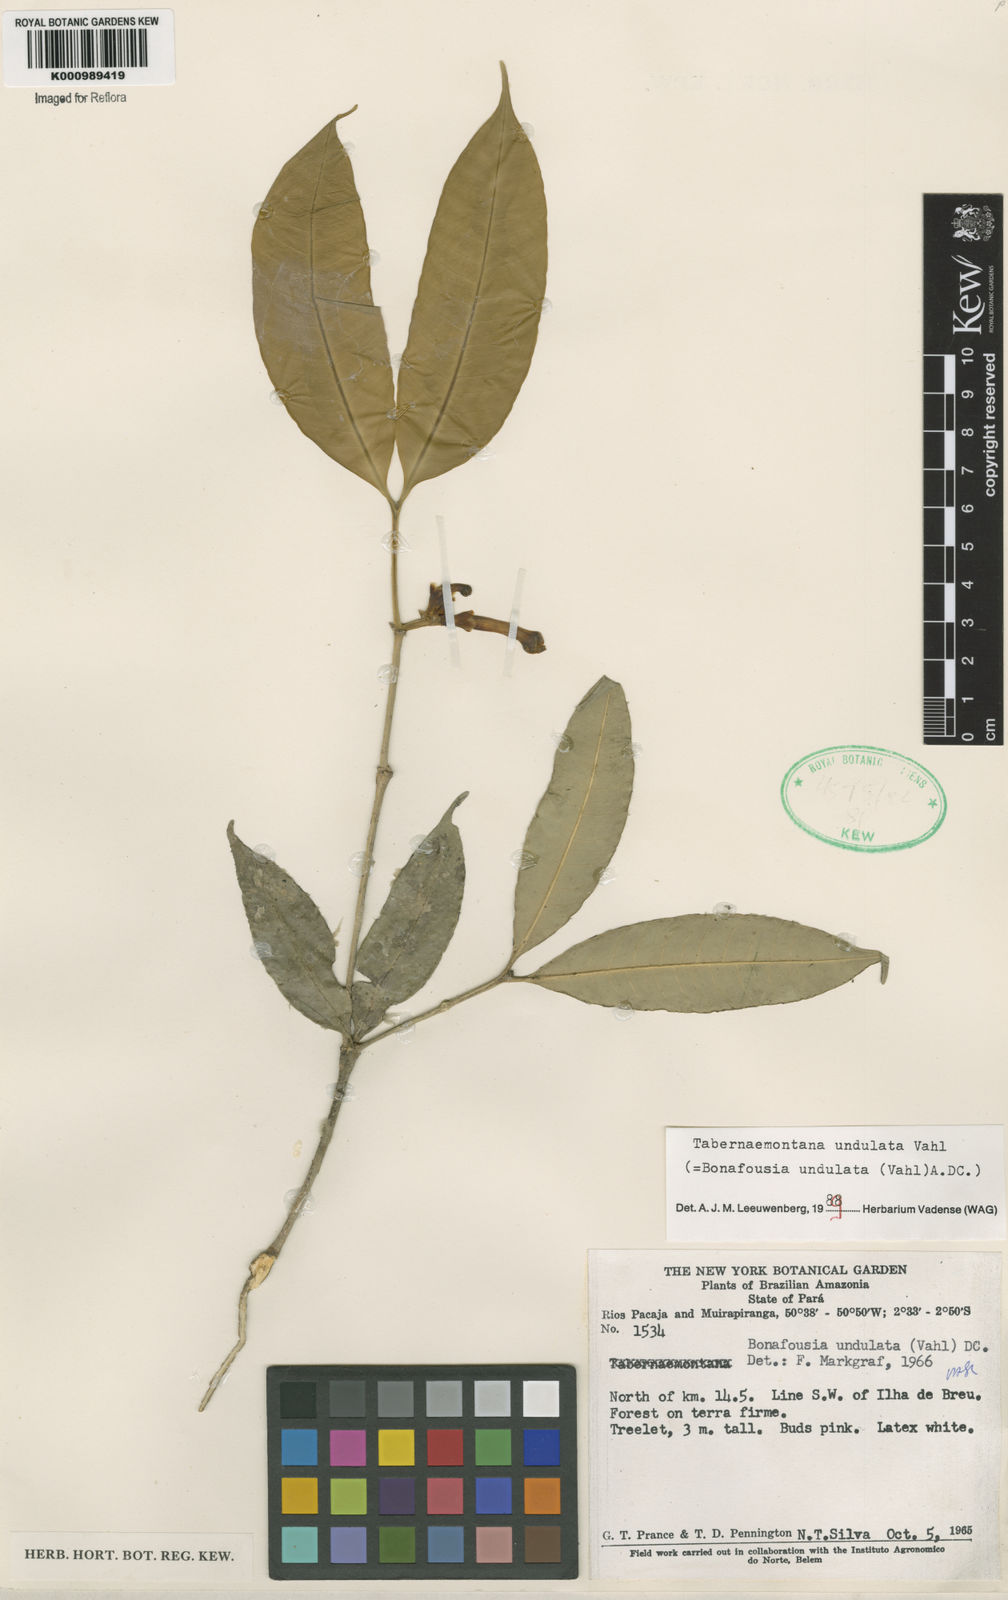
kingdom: Plantae
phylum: Tracheophyta
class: Magnoliopsida
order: Gentianales
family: Apocynaceae
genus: Tabernaemontana
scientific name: Tabernaemontana undulata
